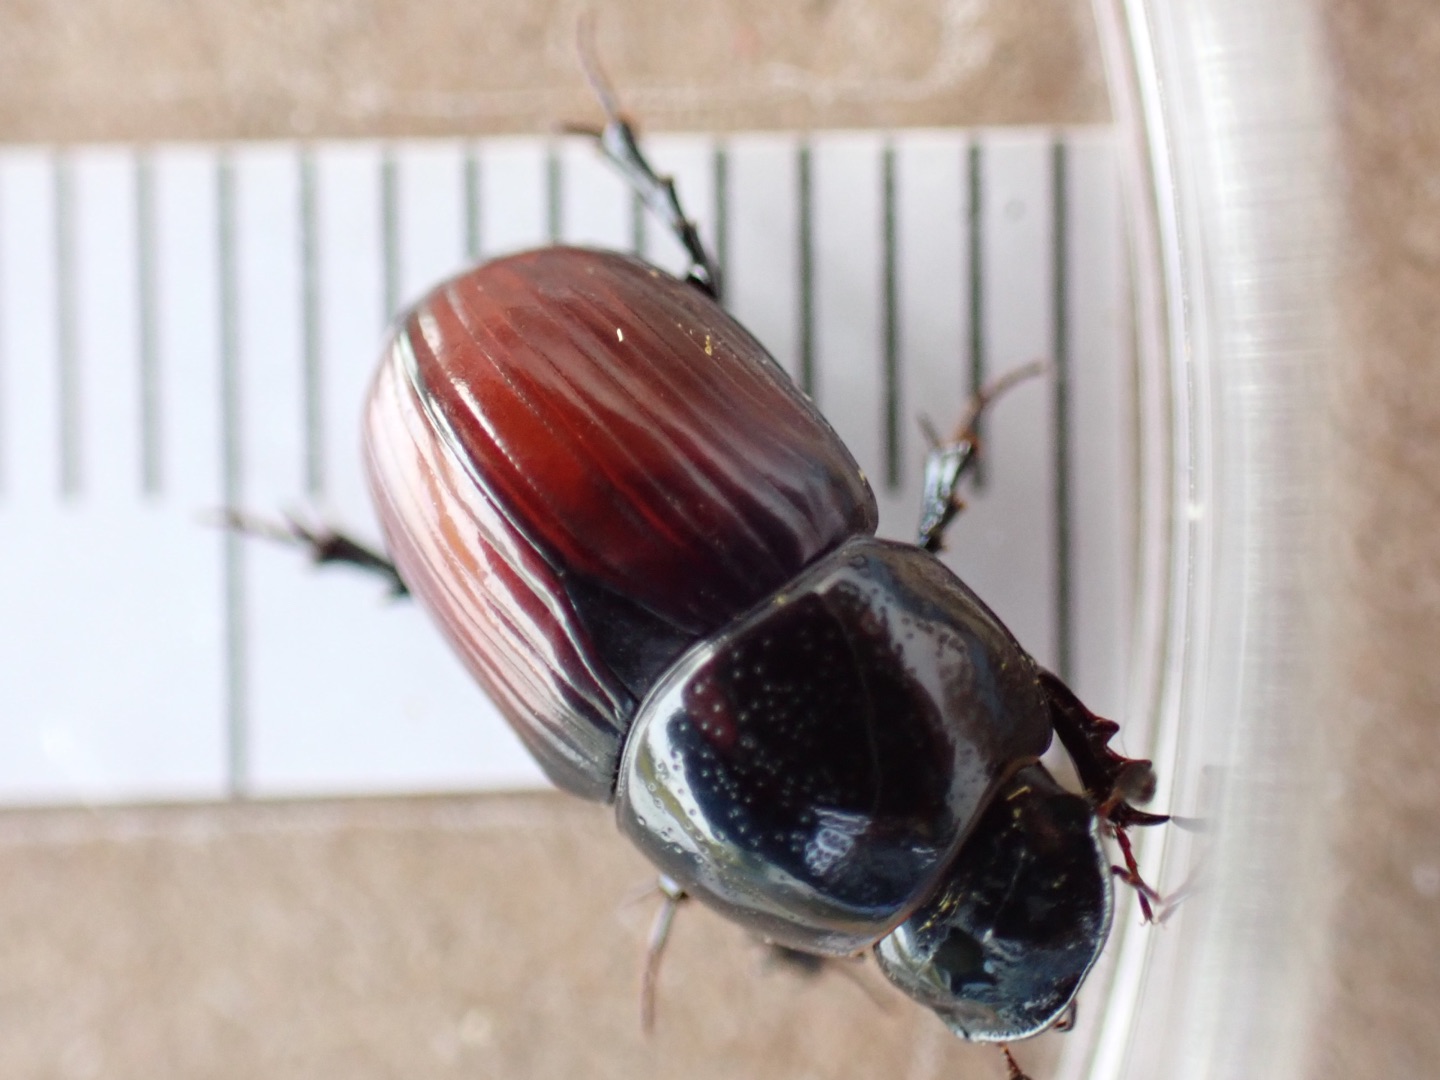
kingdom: Animalia
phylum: Arthropoda
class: Insecta
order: Coleoptera
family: Scarabaeidae
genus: Teuchestes
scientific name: Teuchestes fossor
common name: Stor møgbille
